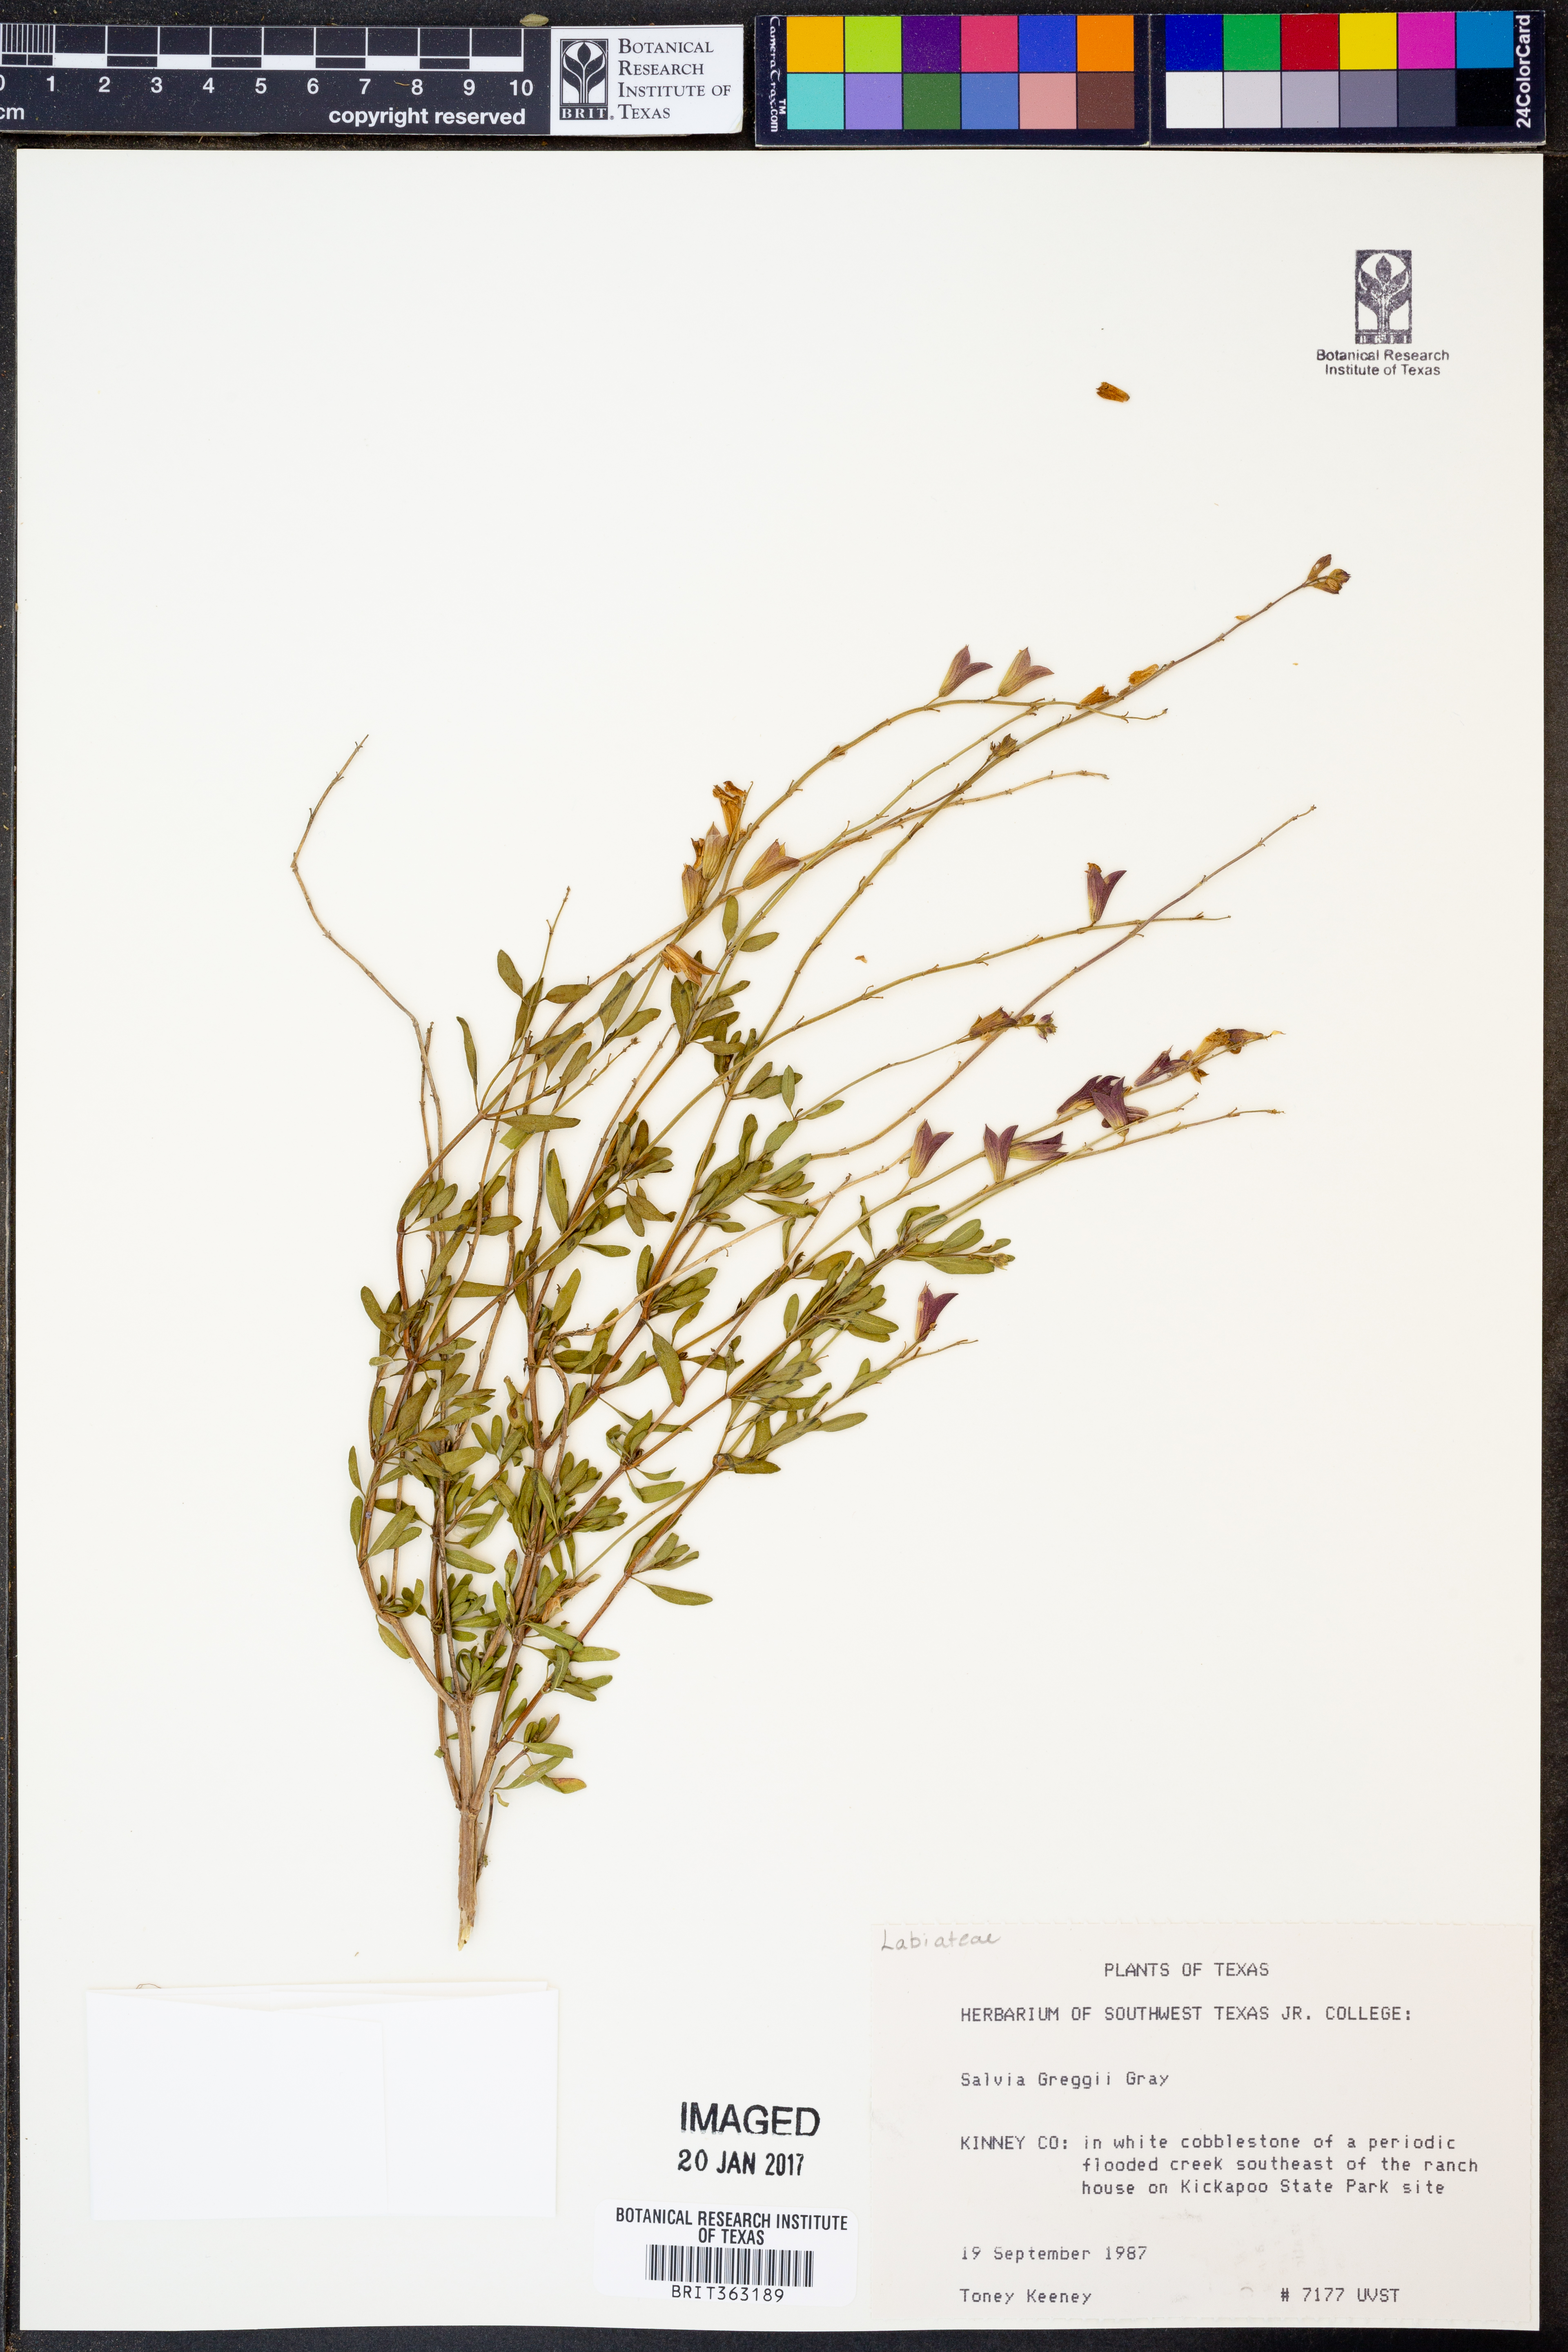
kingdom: Plantae
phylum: Tracheophyta
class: Magnoliopsida
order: Lamiales
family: Lamiaceae
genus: Salvia
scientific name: Salvia greggii
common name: Autumn sage
